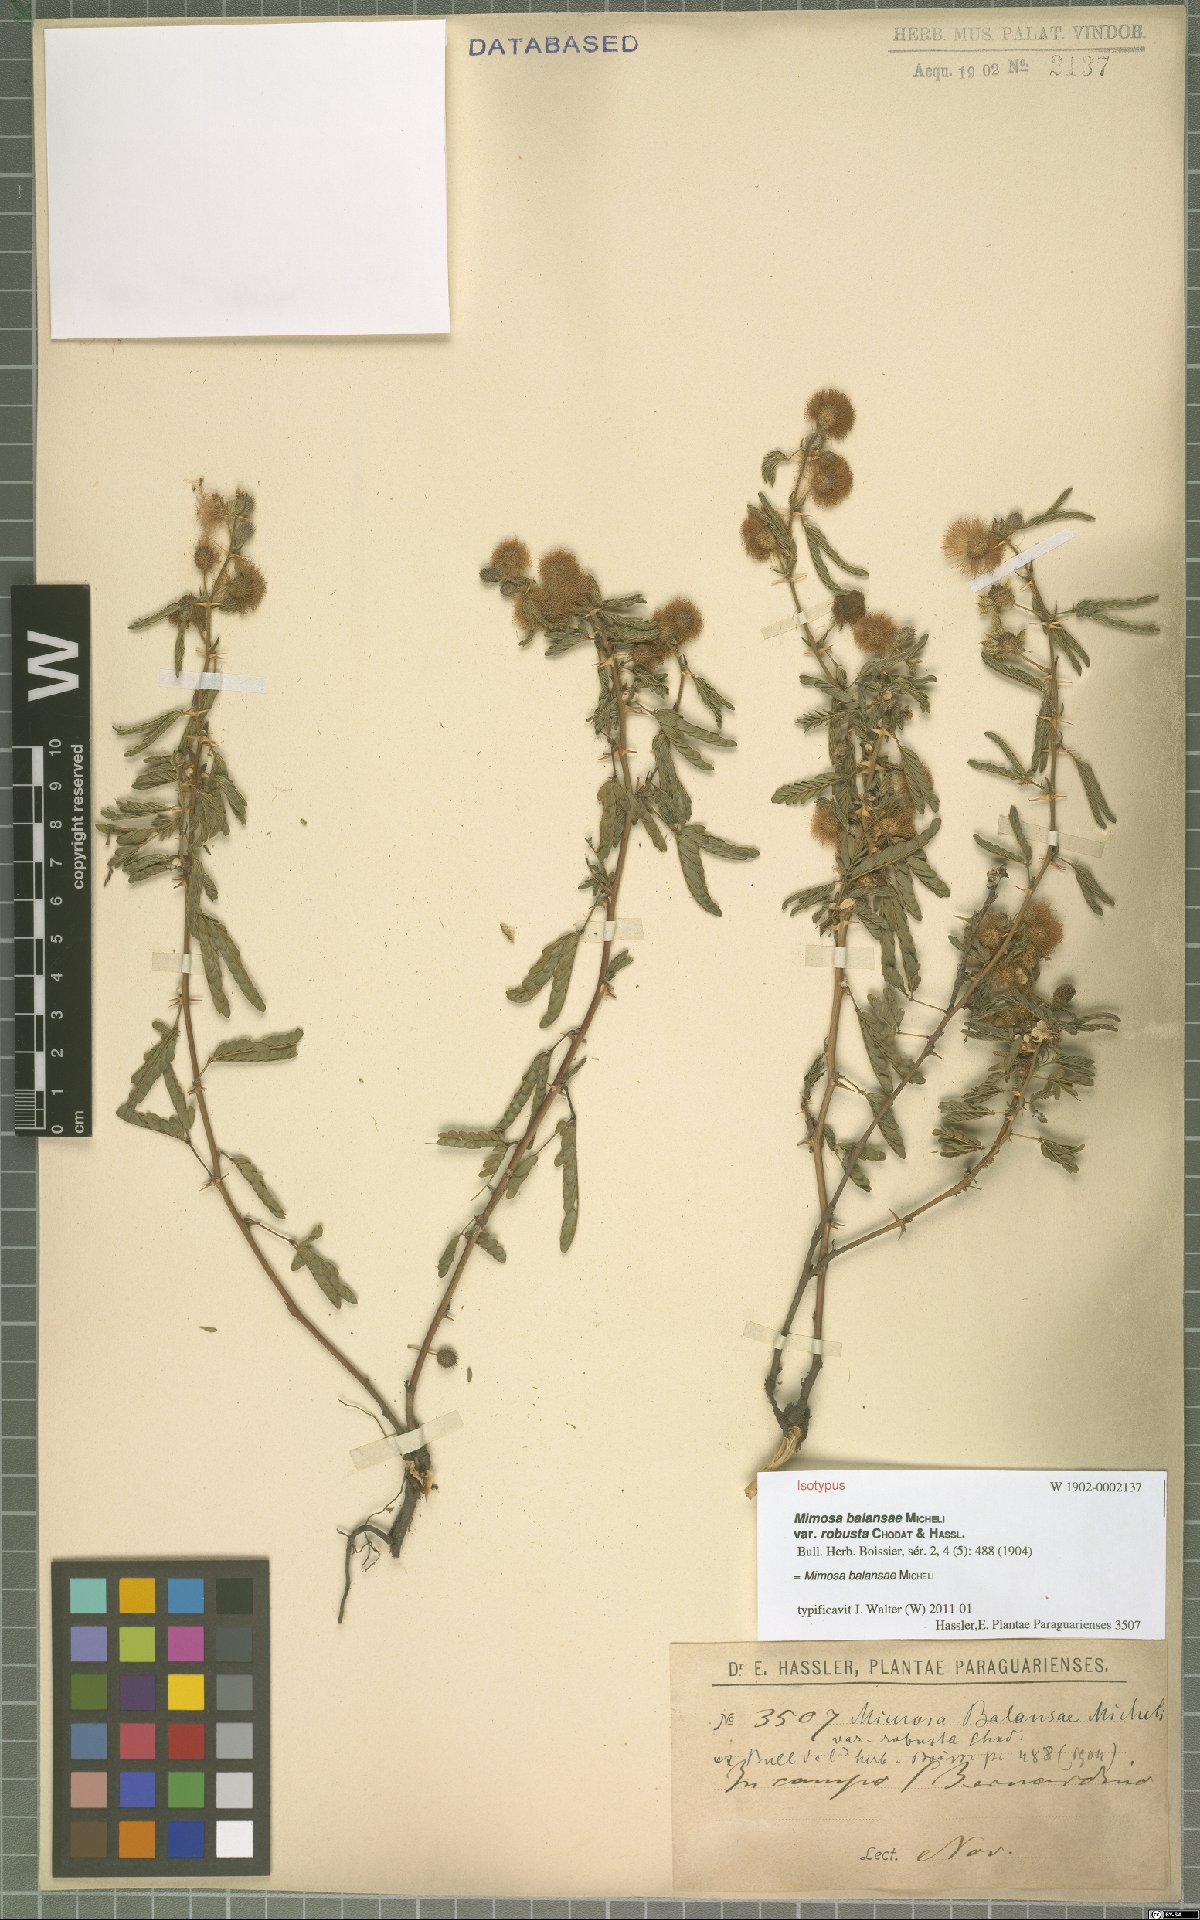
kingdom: Plantae
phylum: Tracheophyta
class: Magnoliopsida
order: Fabales
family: Fabaceae
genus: Mimosa
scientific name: Mimosa balansae
